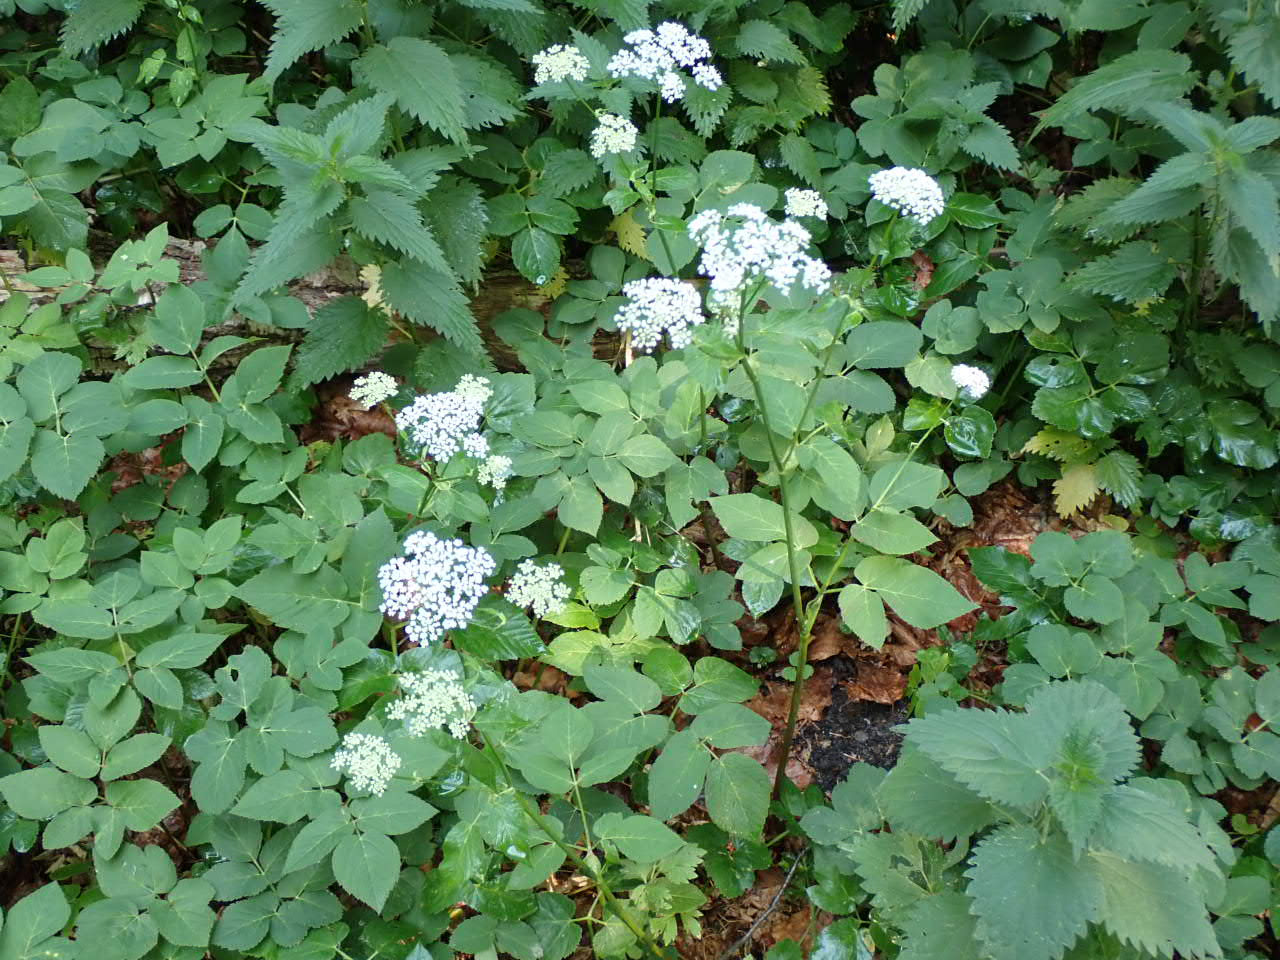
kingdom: Plantae
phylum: Tracheophyta
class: Magnoliopsida
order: Apiales
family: Apiaceae
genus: Aegopodium
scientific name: Aegopodium podagraria
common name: Skvalderkål
